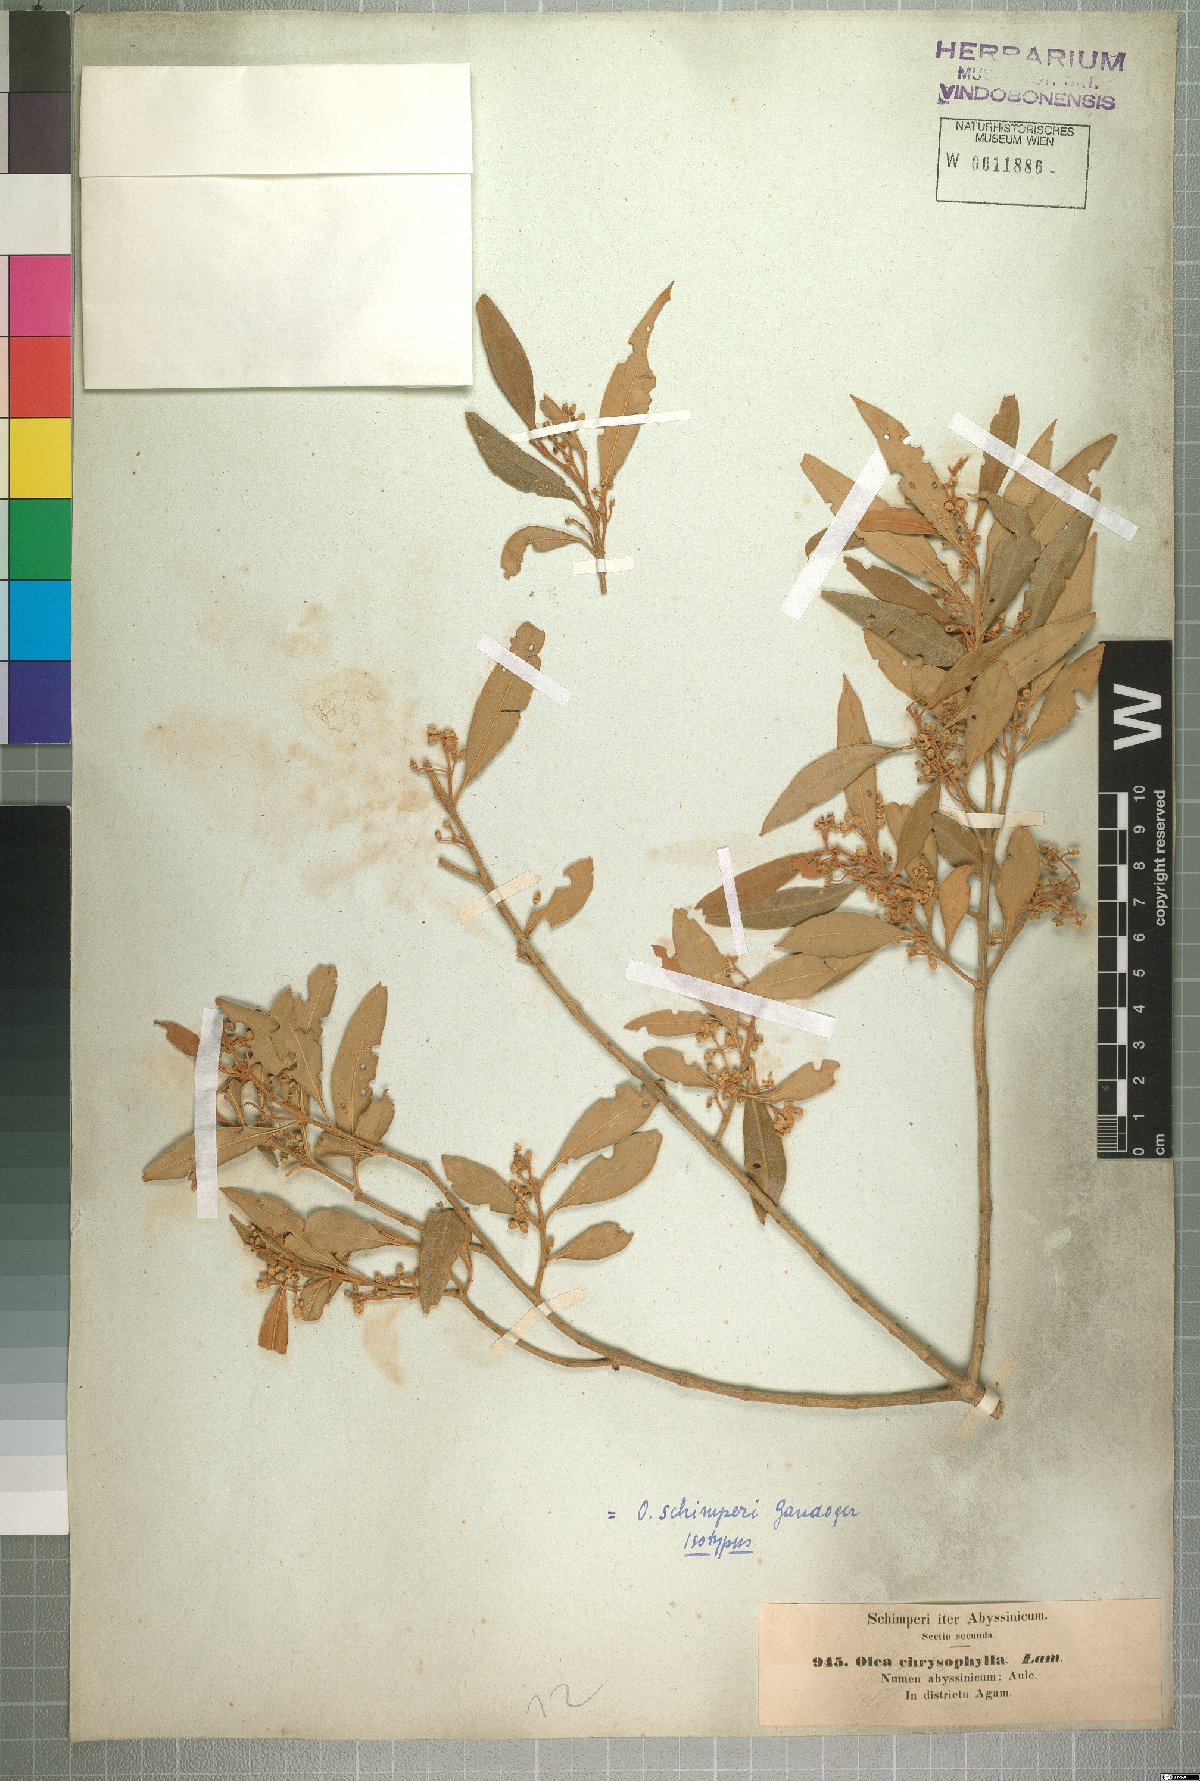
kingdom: Plantae
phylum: Tracheophyta
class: Magnoliopsida
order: Lamiales
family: Oleaceae
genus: Olea
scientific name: Olea europaea
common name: Olive
